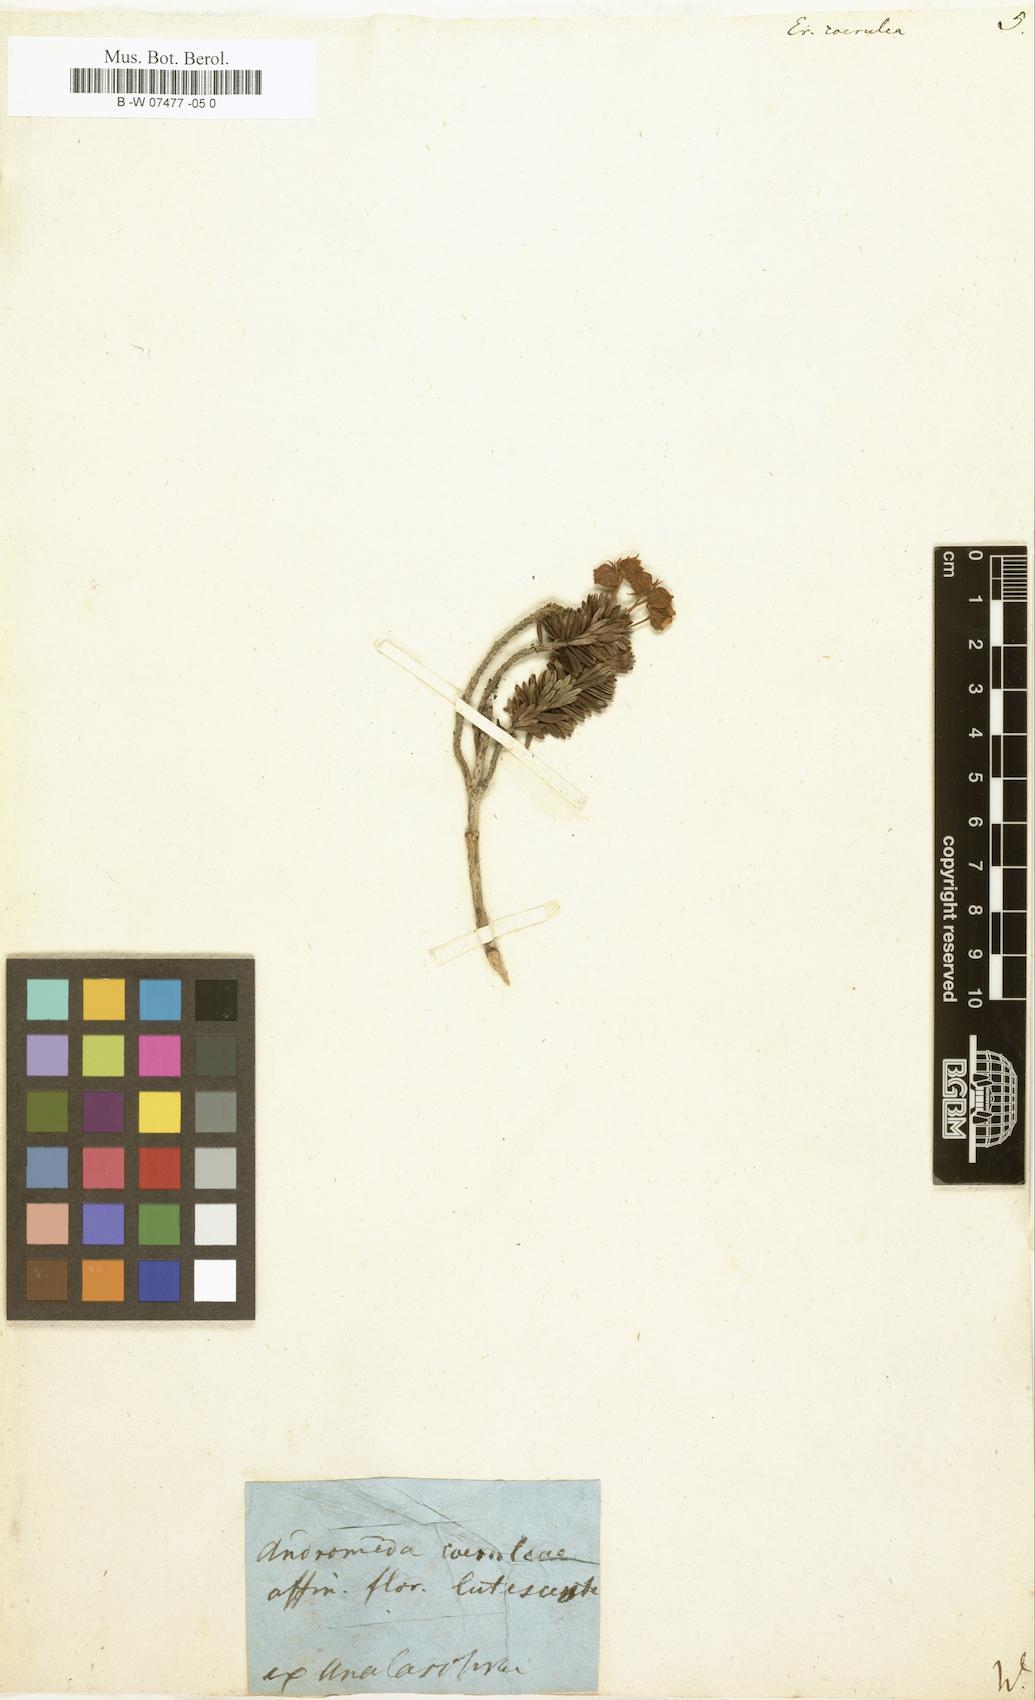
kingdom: Plantae
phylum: Tracheophyta
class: Magnoliopsida
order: Ericales
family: Ericaceae
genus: Phyllodoce
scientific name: Phyllodoce caerulea
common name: Blue heath
